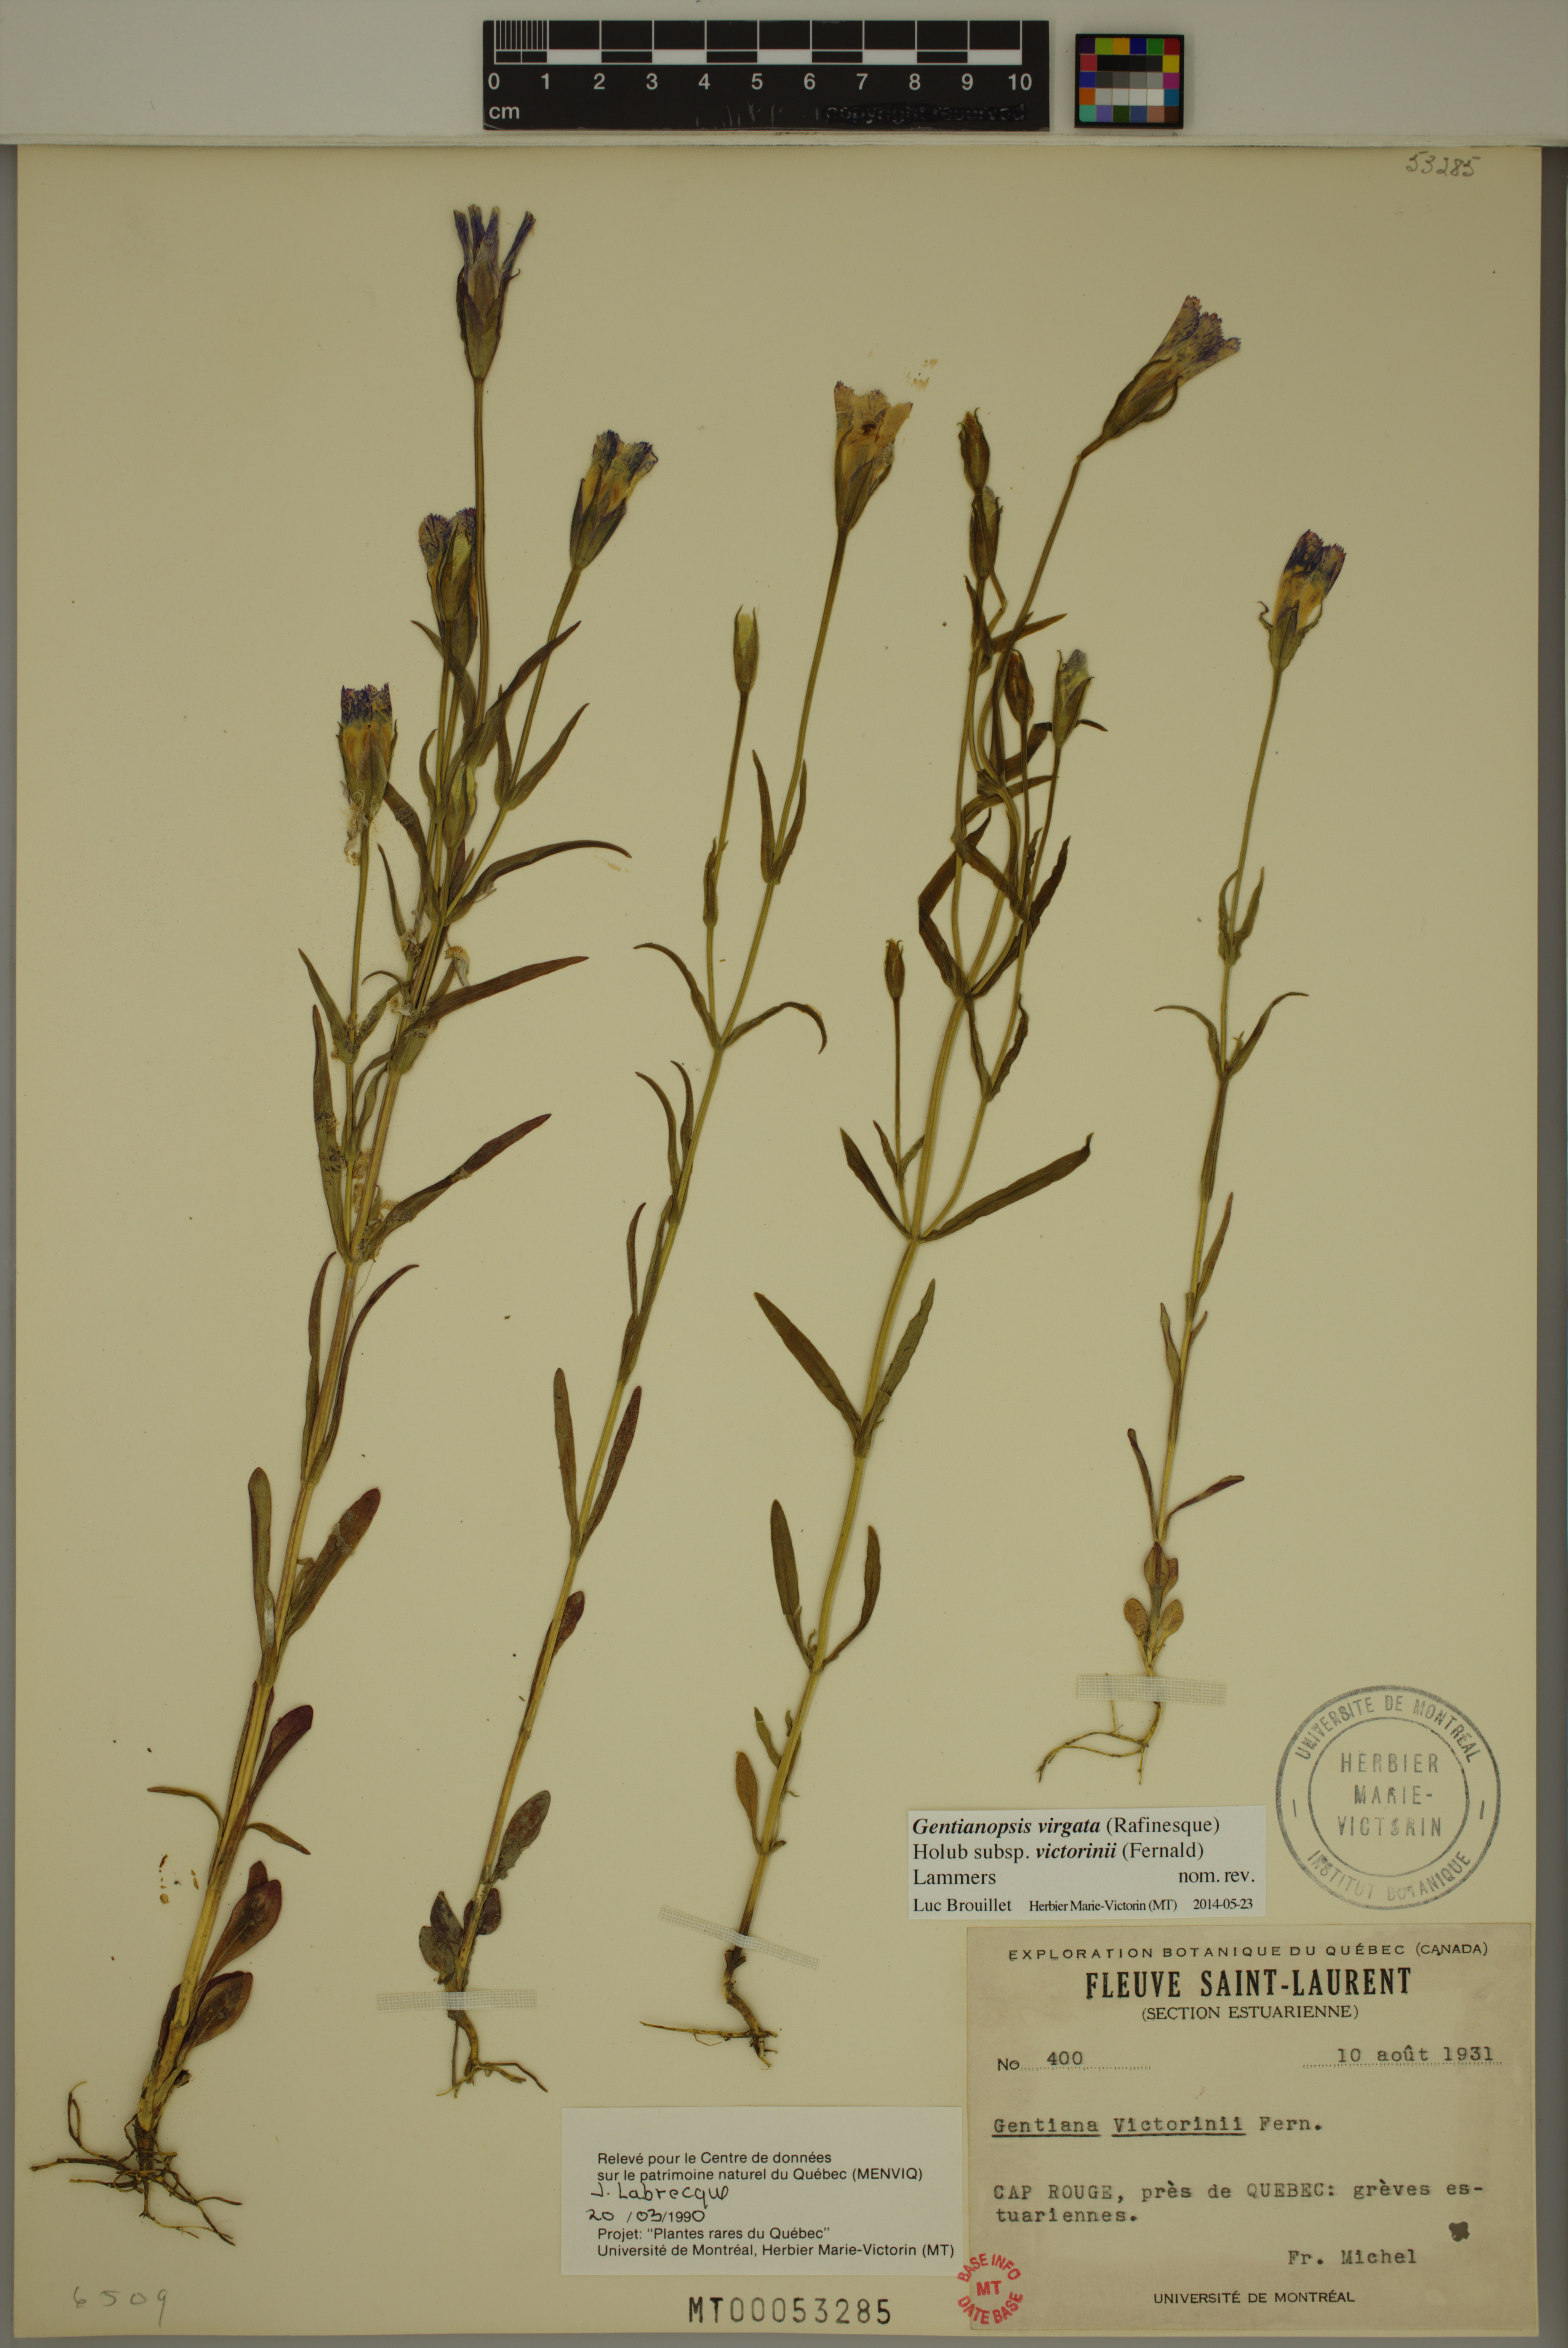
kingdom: Plantae
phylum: Tracheophyta
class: Magnoliopsida
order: Gentianales
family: Gentianaceae
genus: Gentianopsis
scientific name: Gentianopsis victorinii
